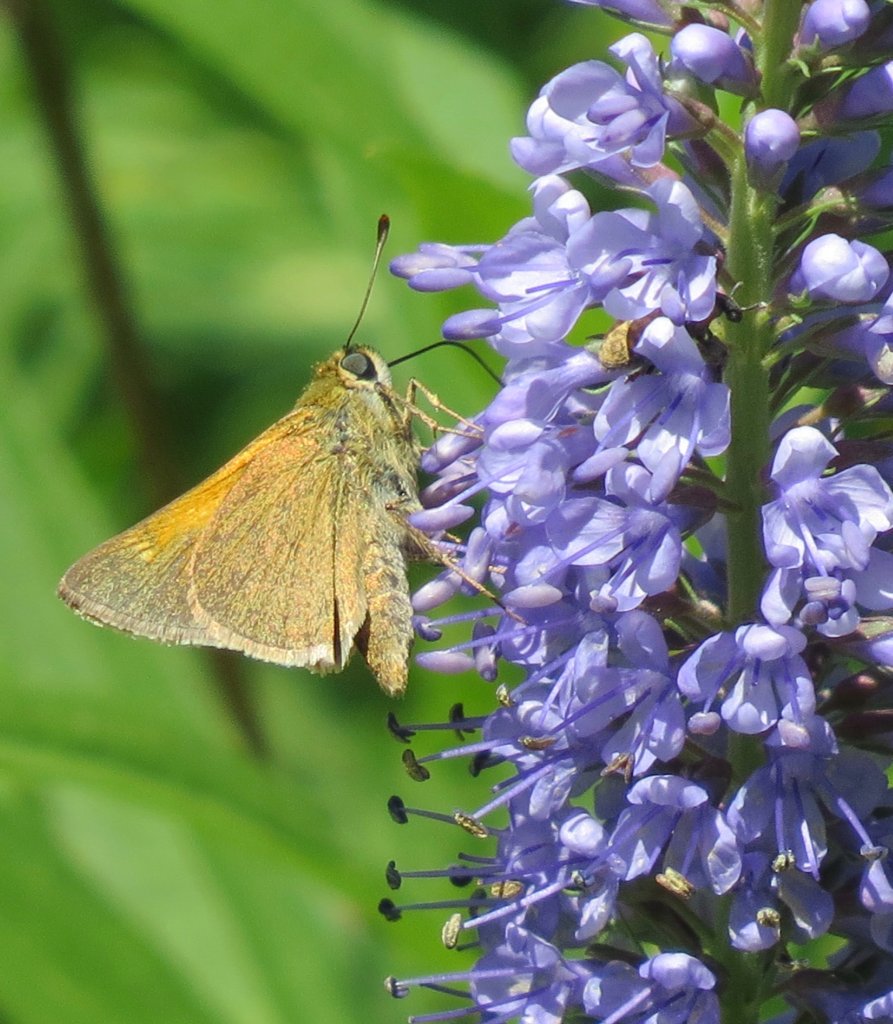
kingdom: Animalia
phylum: Arthropoda
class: Insecta
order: Lepidoptera
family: Hesperiidae
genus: Polites
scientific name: Polites themistocles
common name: Tawny-edged Skipper
